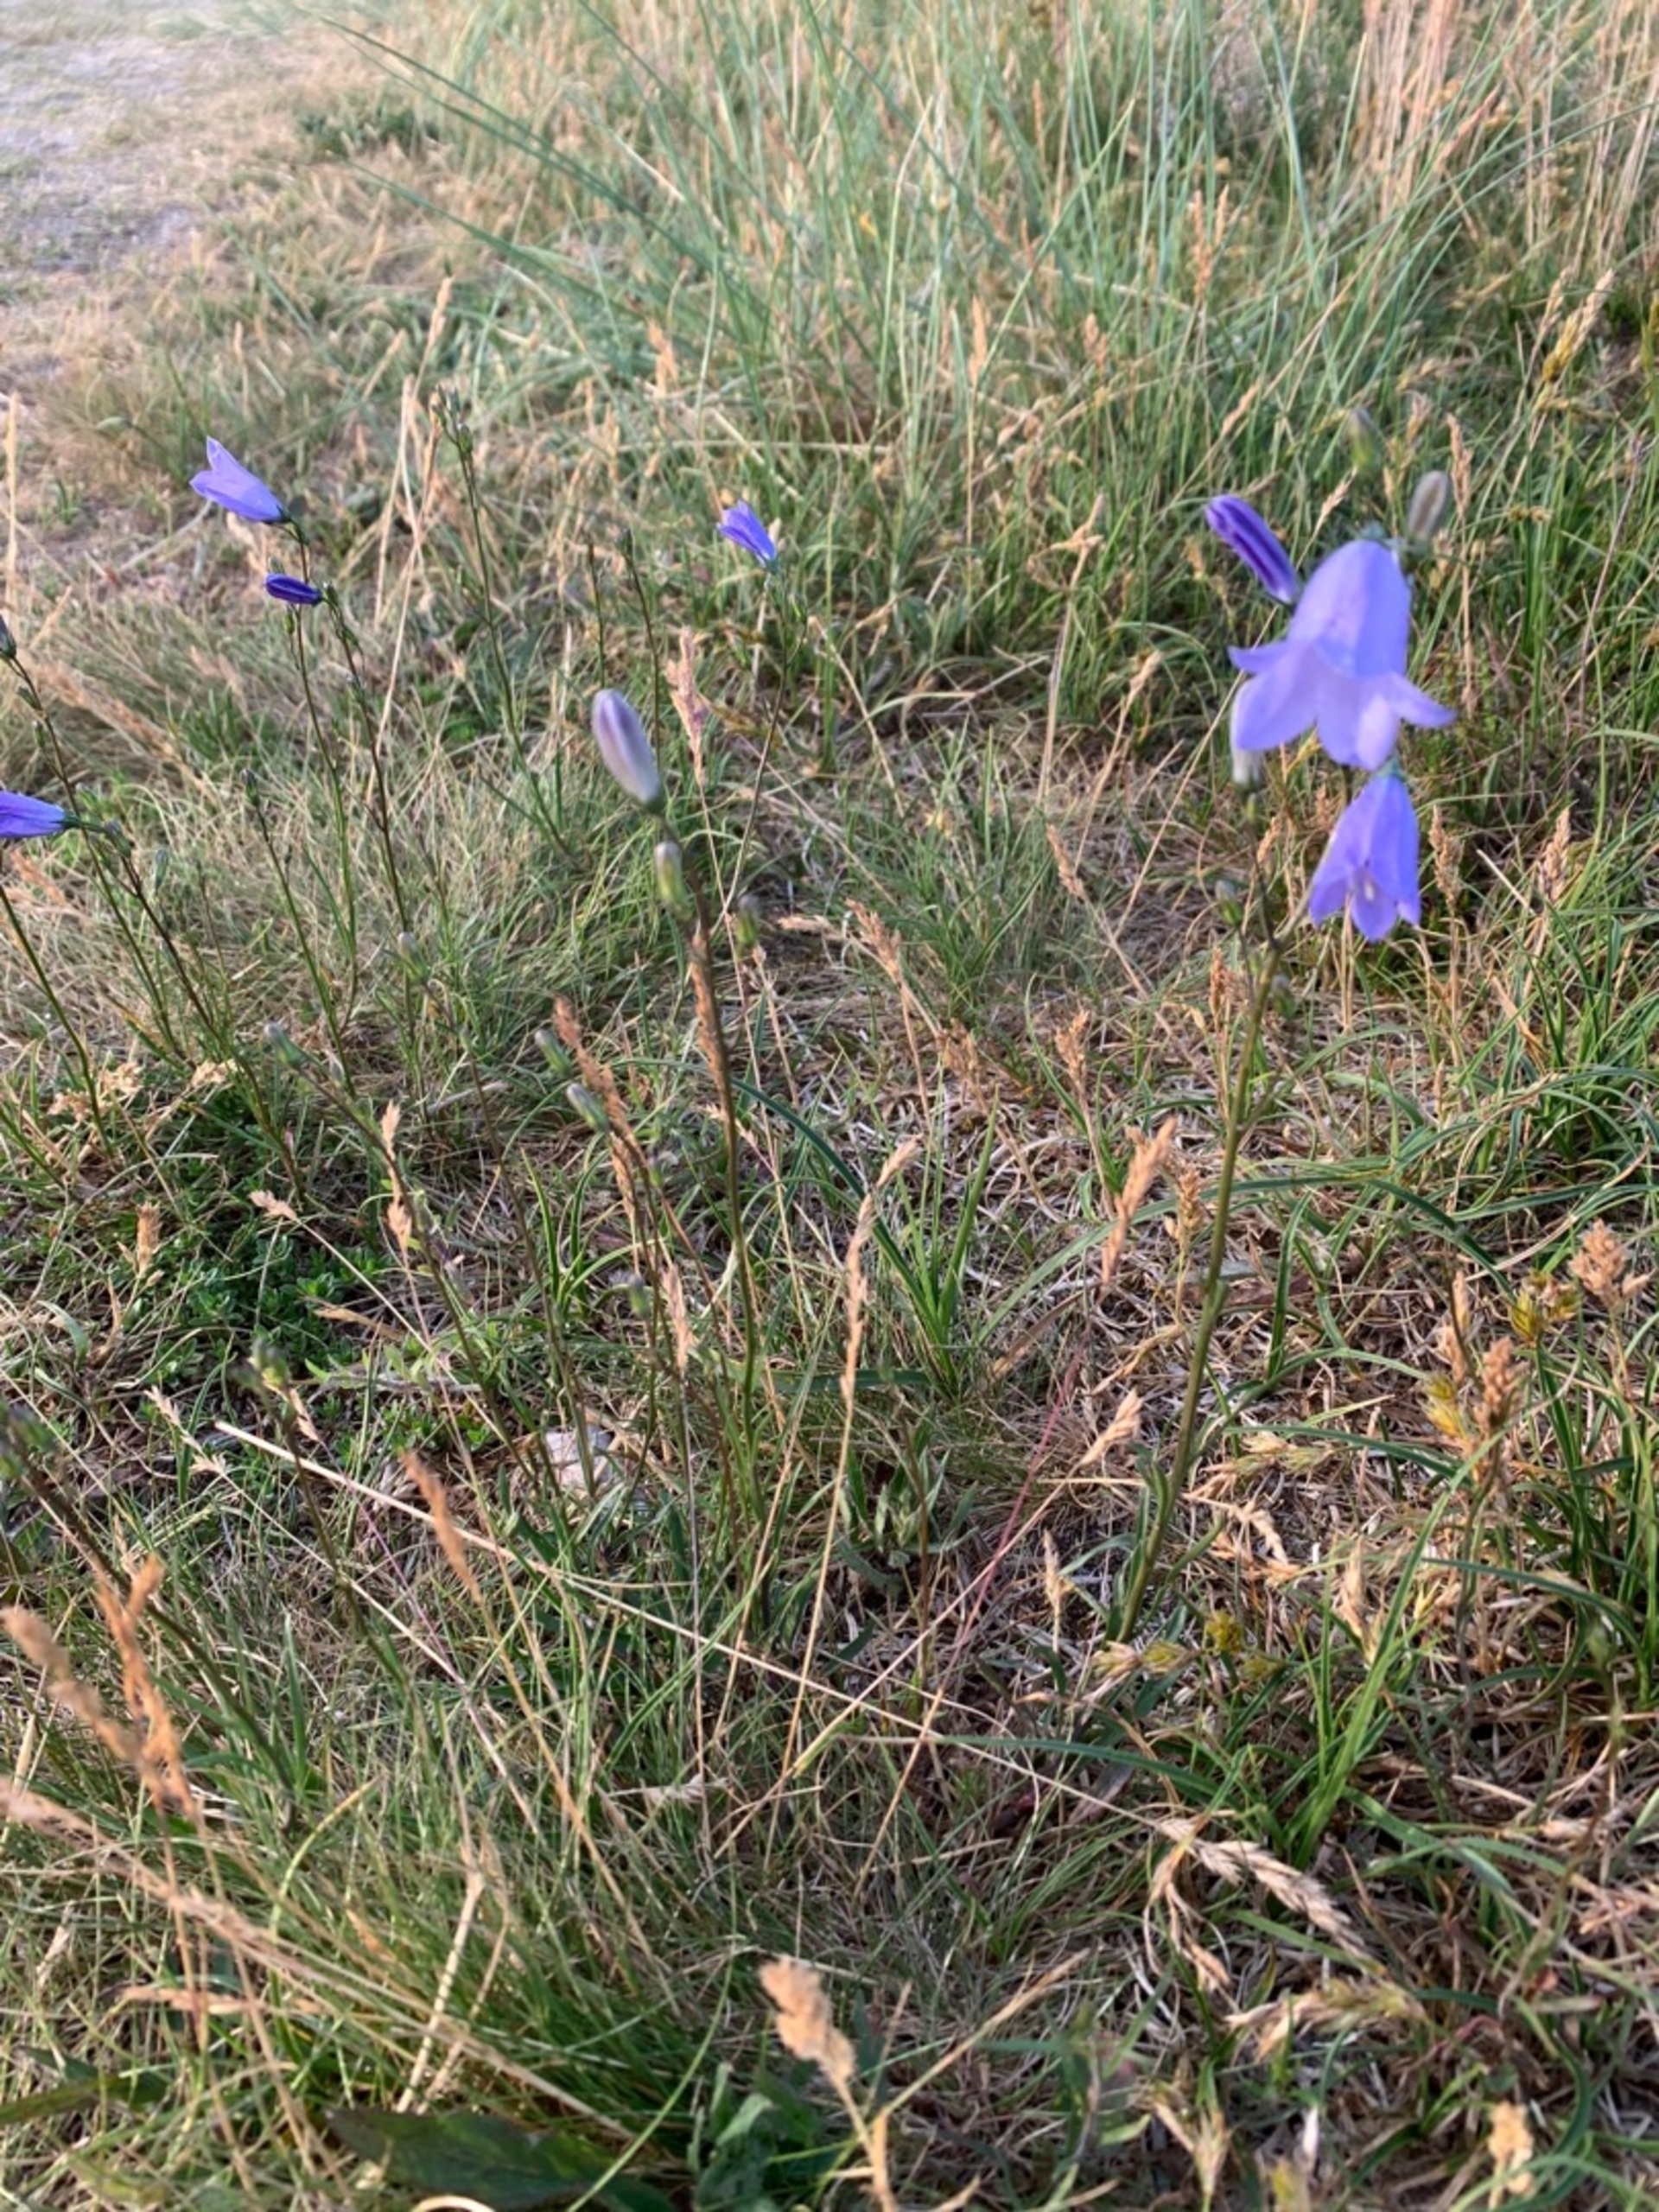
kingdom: Plantae
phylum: Tracheophyta
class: Magnoliopsida
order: Asterales
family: Campanulaceae
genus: Campanula
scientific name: Campanula rotundifolia
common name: Liden klokke
